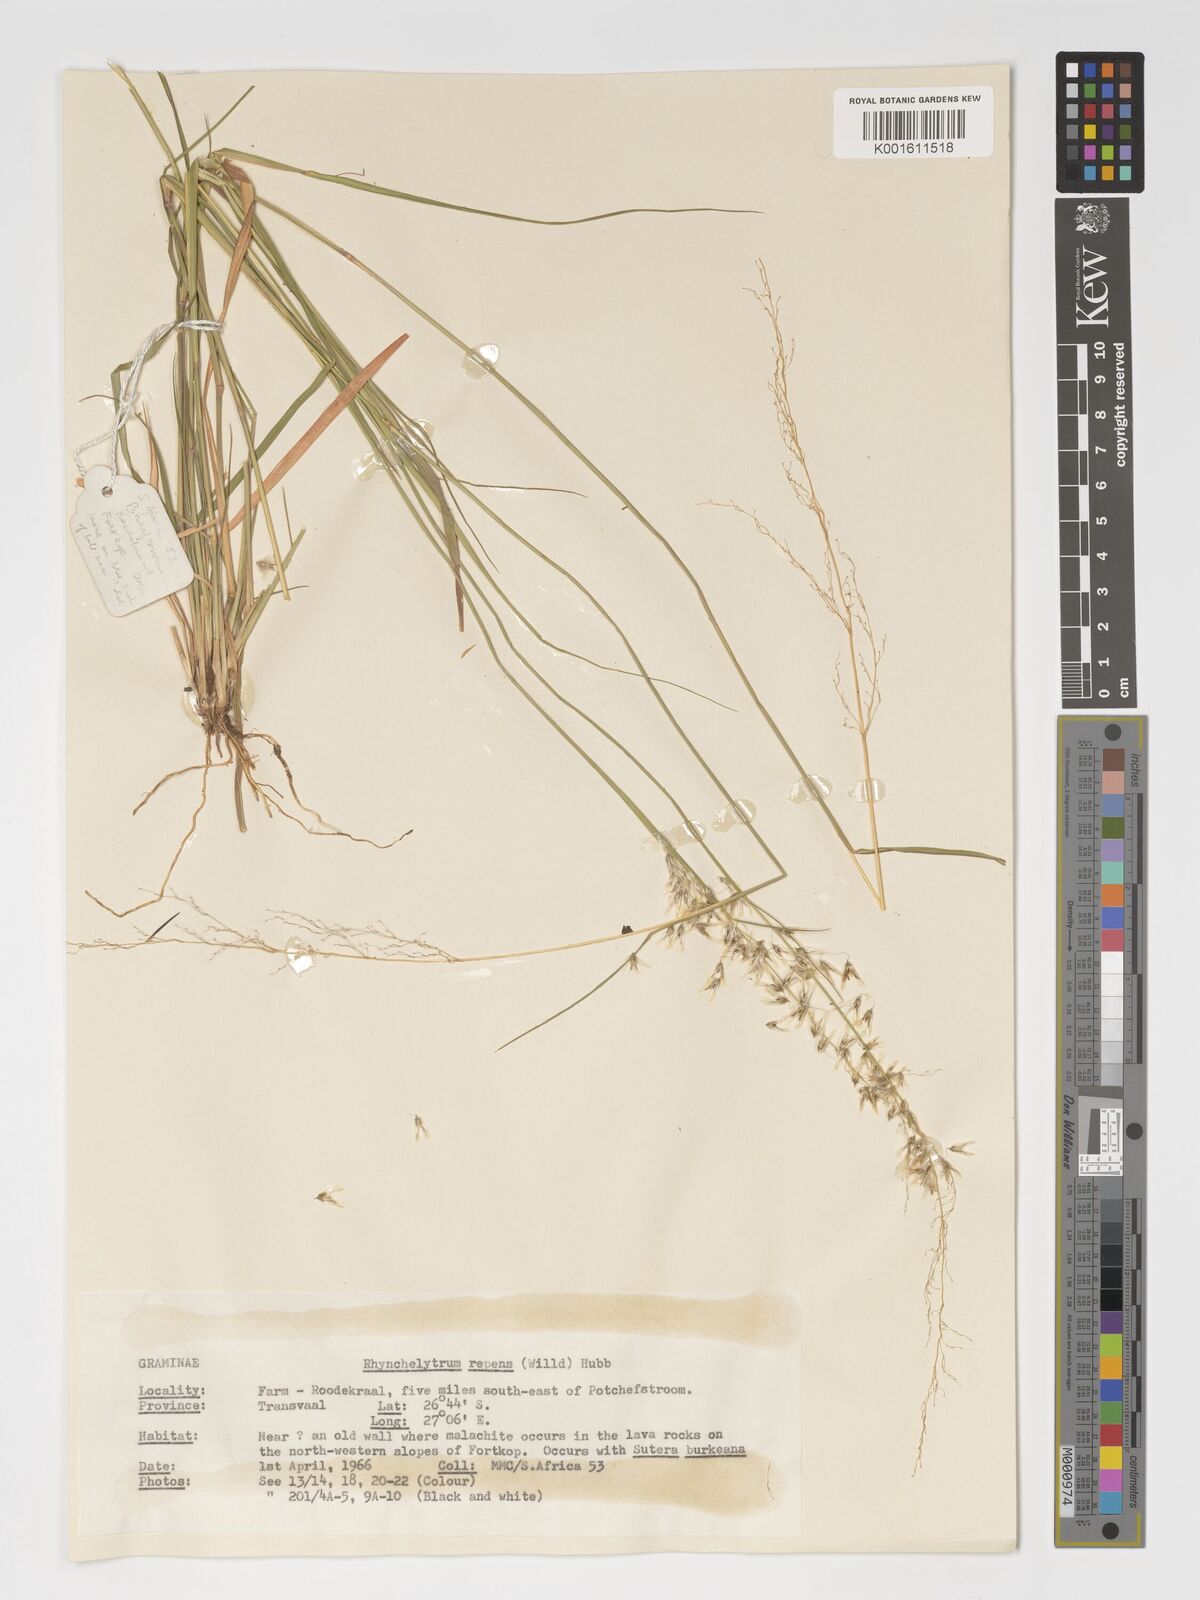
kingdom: Plantae
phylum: Tracheophyta
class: Liliopsida
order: Poales
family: Poaceae
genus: Melinis
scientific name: Melinis repens
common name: Rose natal grass
